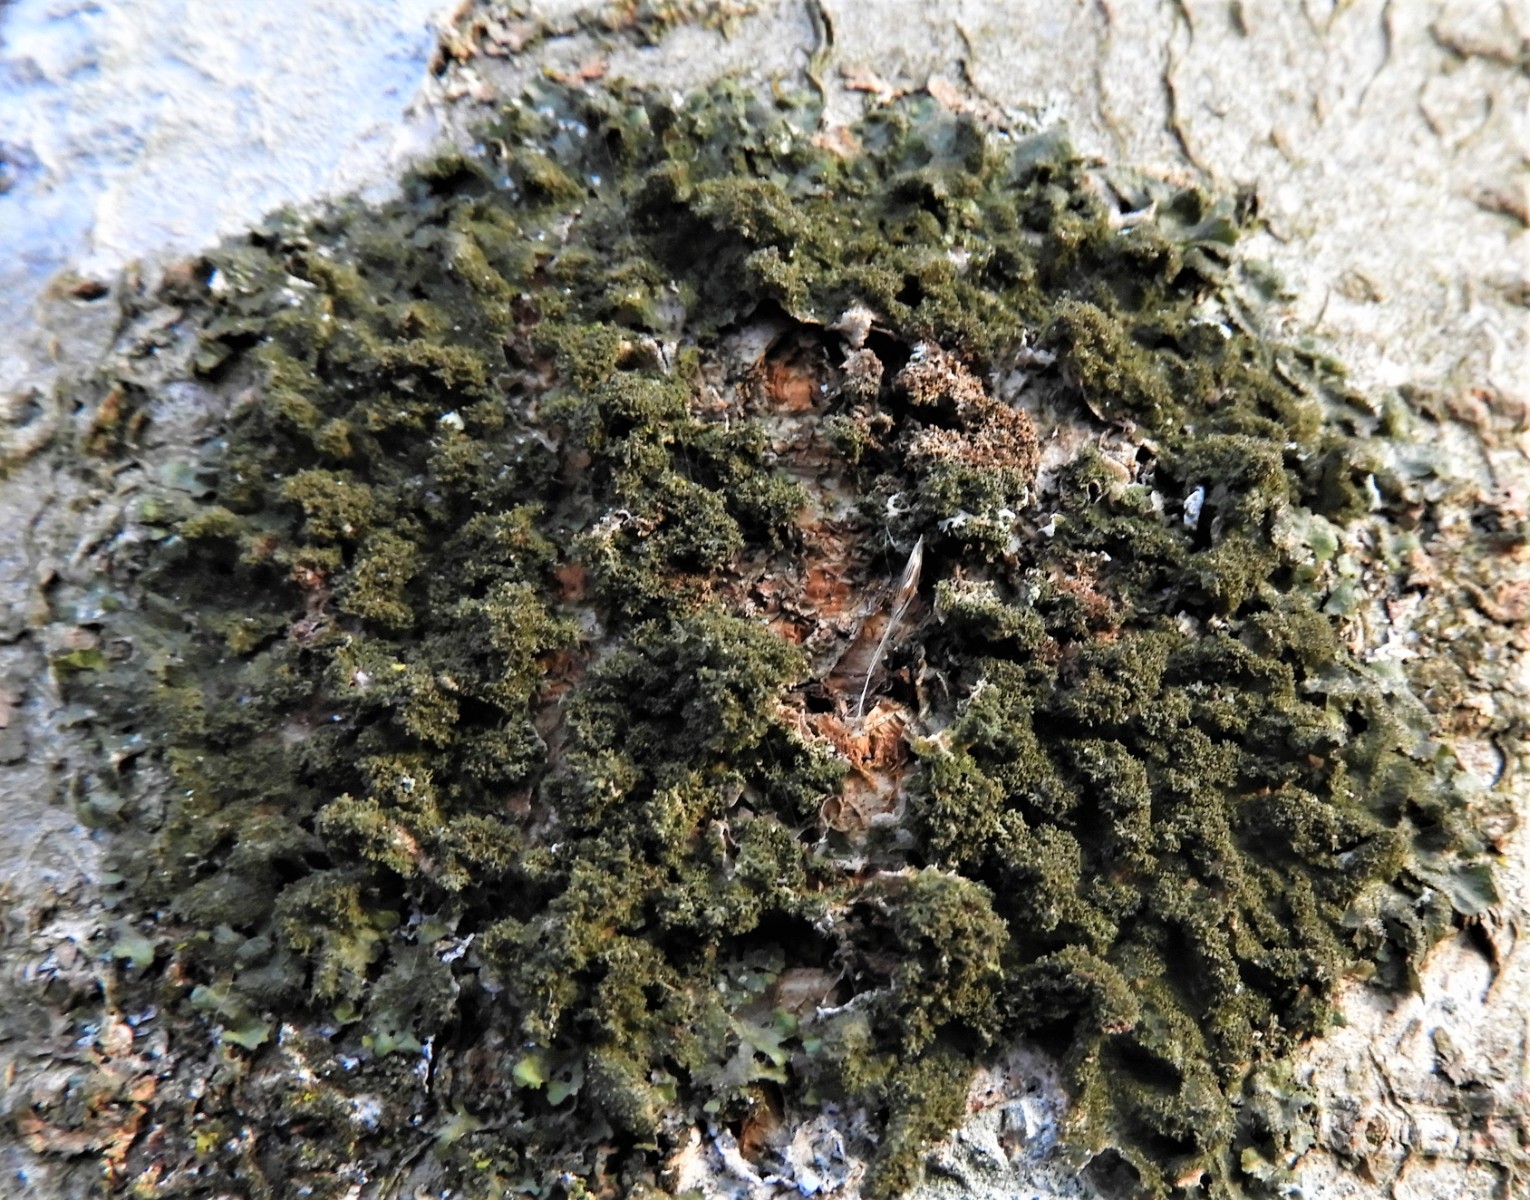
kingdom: Fungi
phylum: Ascomycota
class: Lecanoromycetes
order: Lecanorales
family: Parmeliaceae
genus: Melanohalea
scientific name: Melanohalea exasperatula
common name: kølle-skållav
